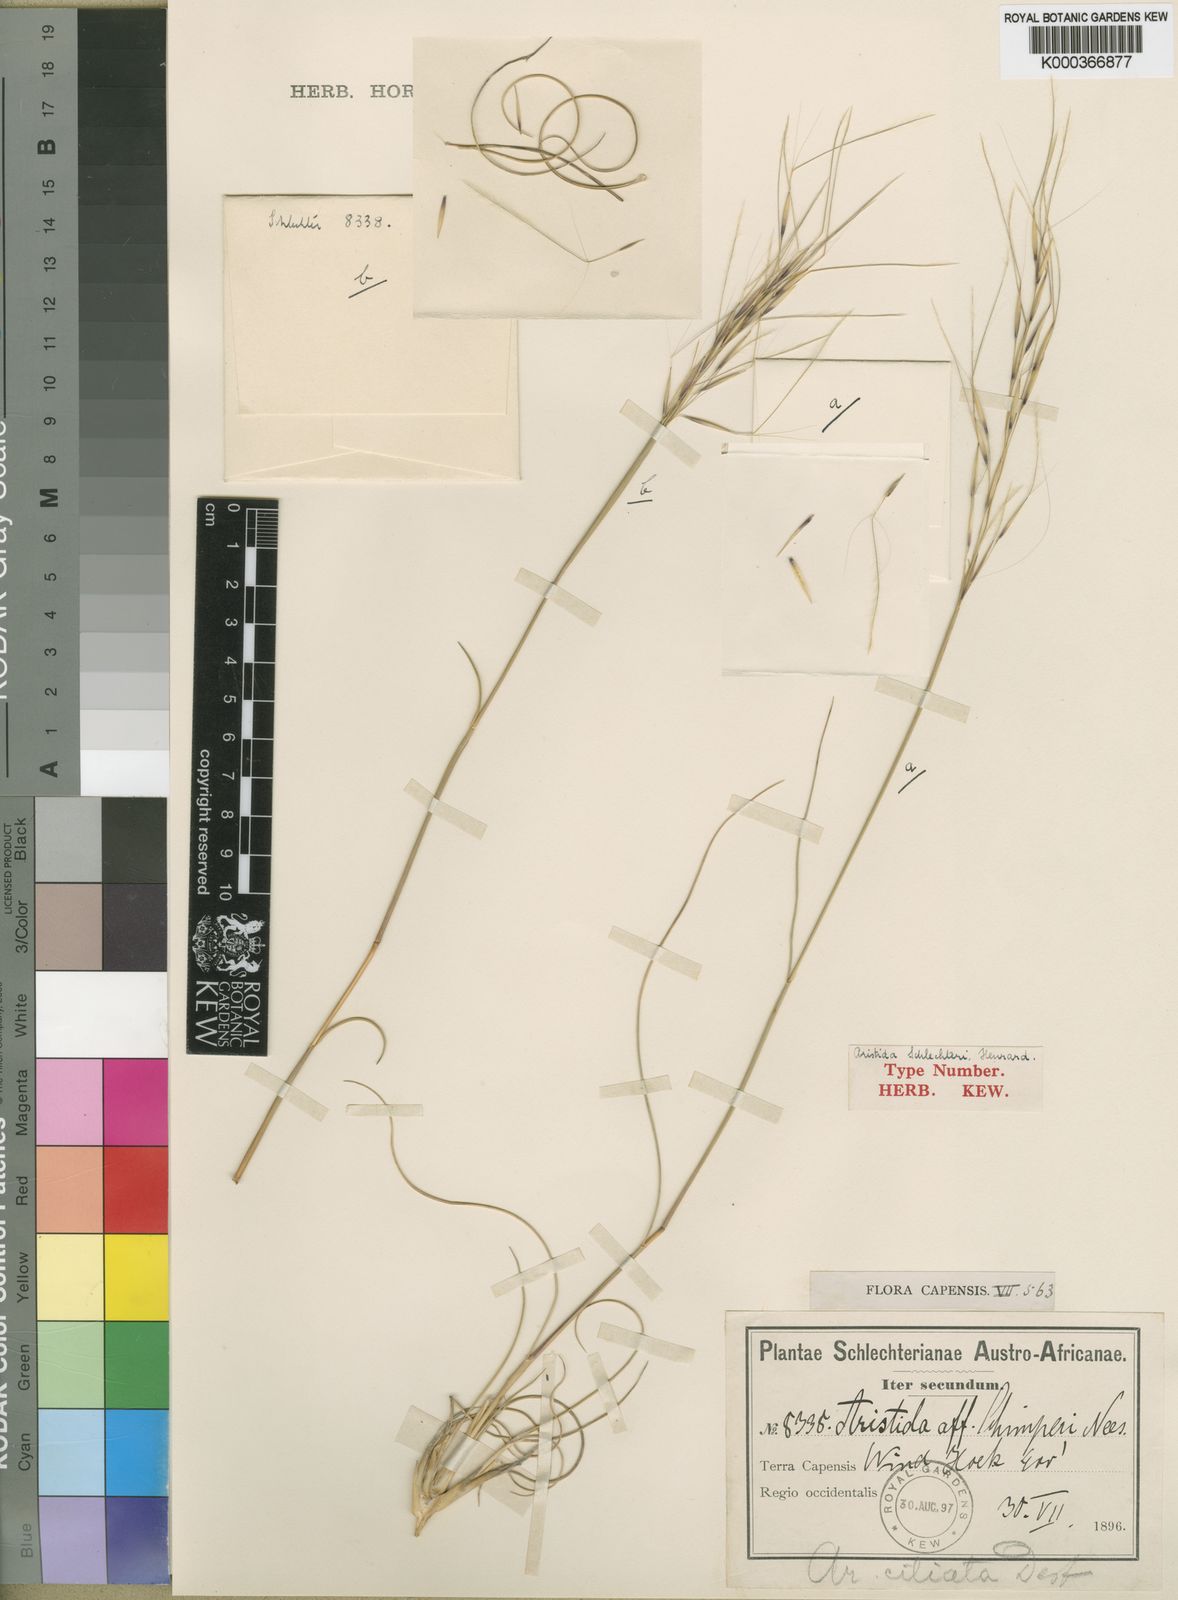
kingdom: Plantae
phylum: Tracheophyta
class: Liliopsida
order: Poales
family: Poaceae
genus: Stipagrostis
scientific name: Stipagrostis zeyheri
